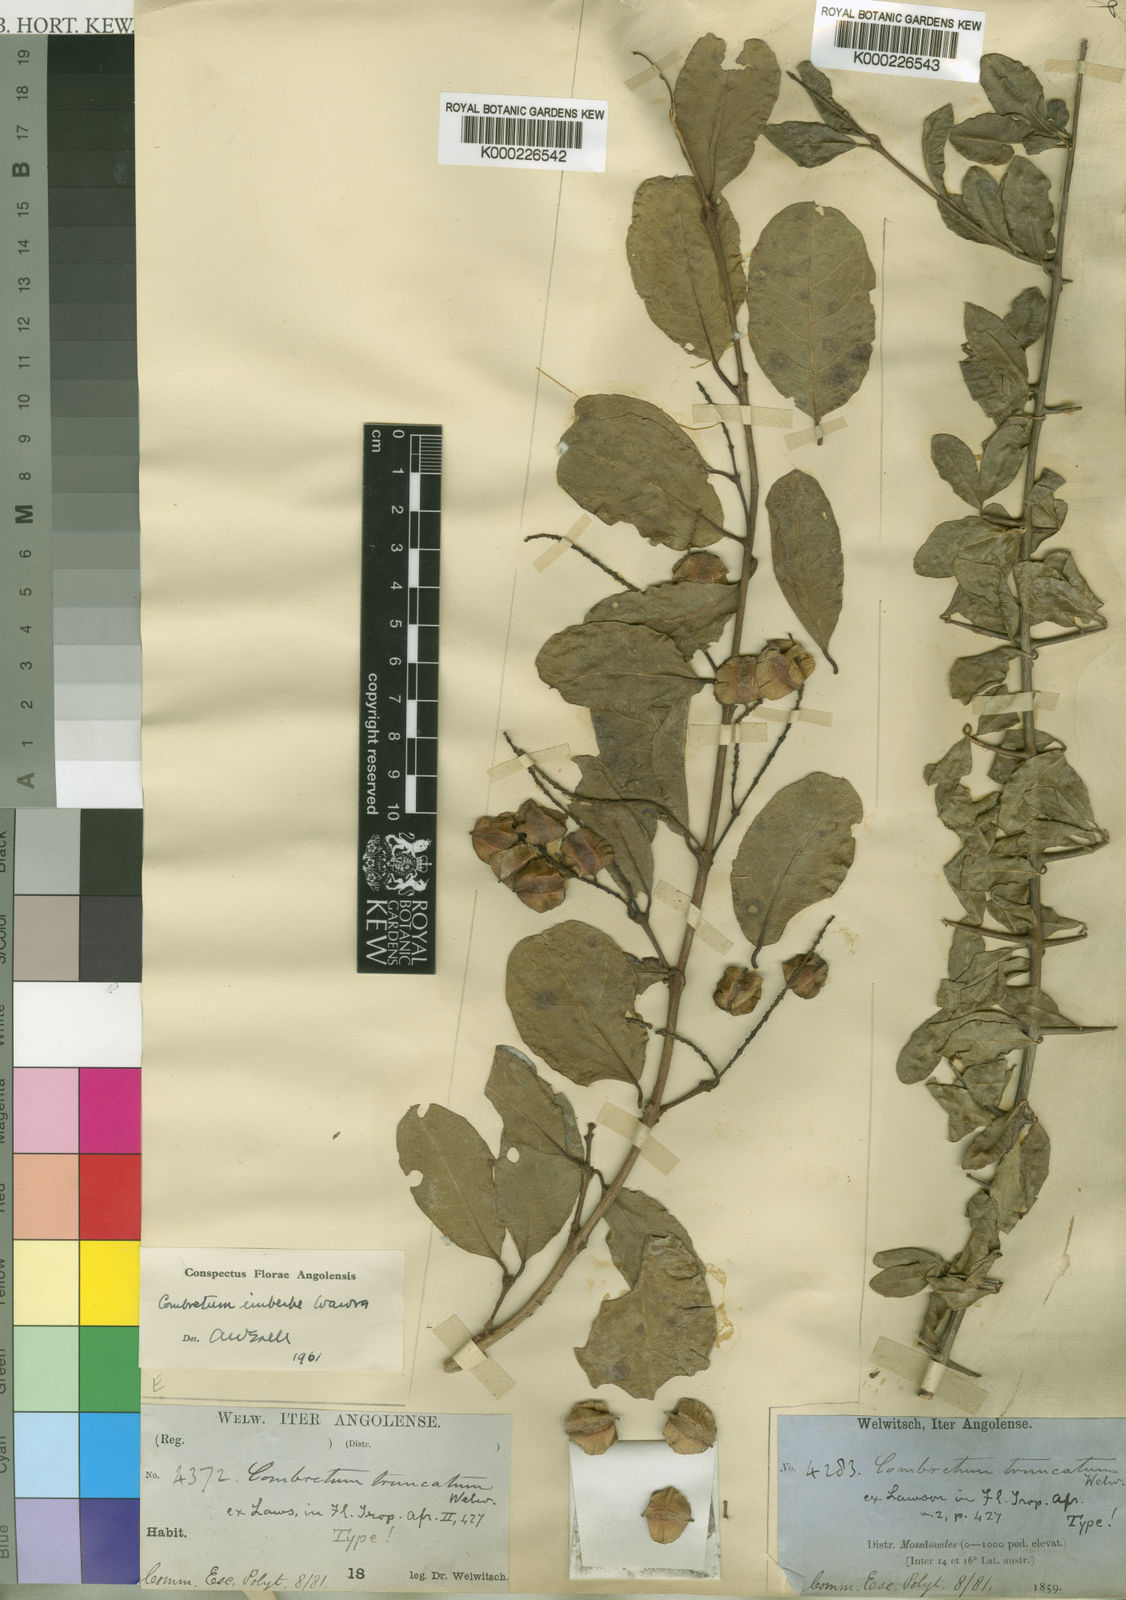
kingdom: Plantae
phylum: Tracheophyta
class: Magnoliopsida
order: Myrtales
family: Combretaceae
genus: Combretum
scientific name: Combretum imberbe
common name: Leadwood
